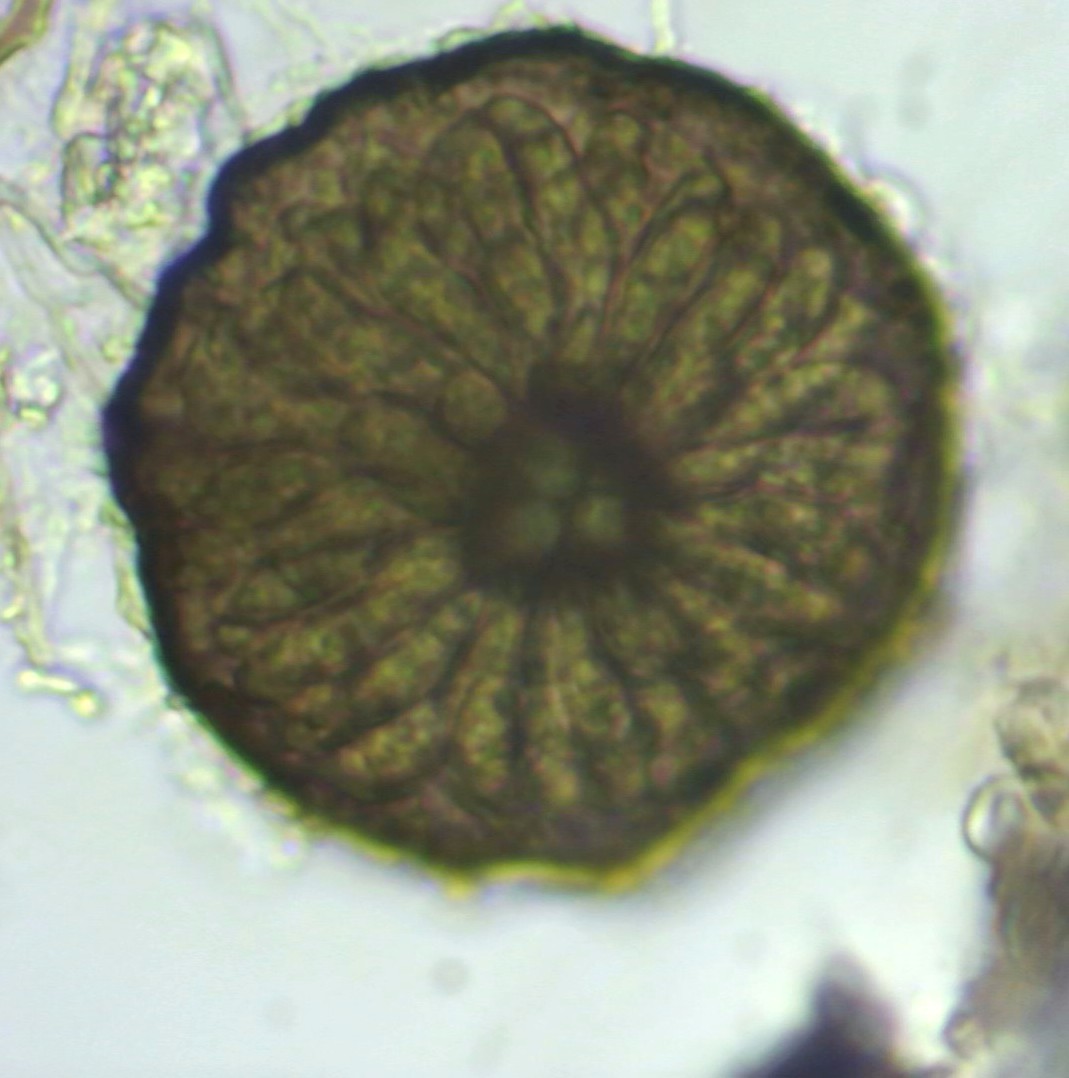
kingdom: Fungi
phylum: Ascomycota
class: Dothideomycetes
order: Microthyriales
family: Microthyriaceae
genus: Lichenopeltella
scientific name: Lichenopeltella pinophylla
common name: fyrrenåle-tykplet
